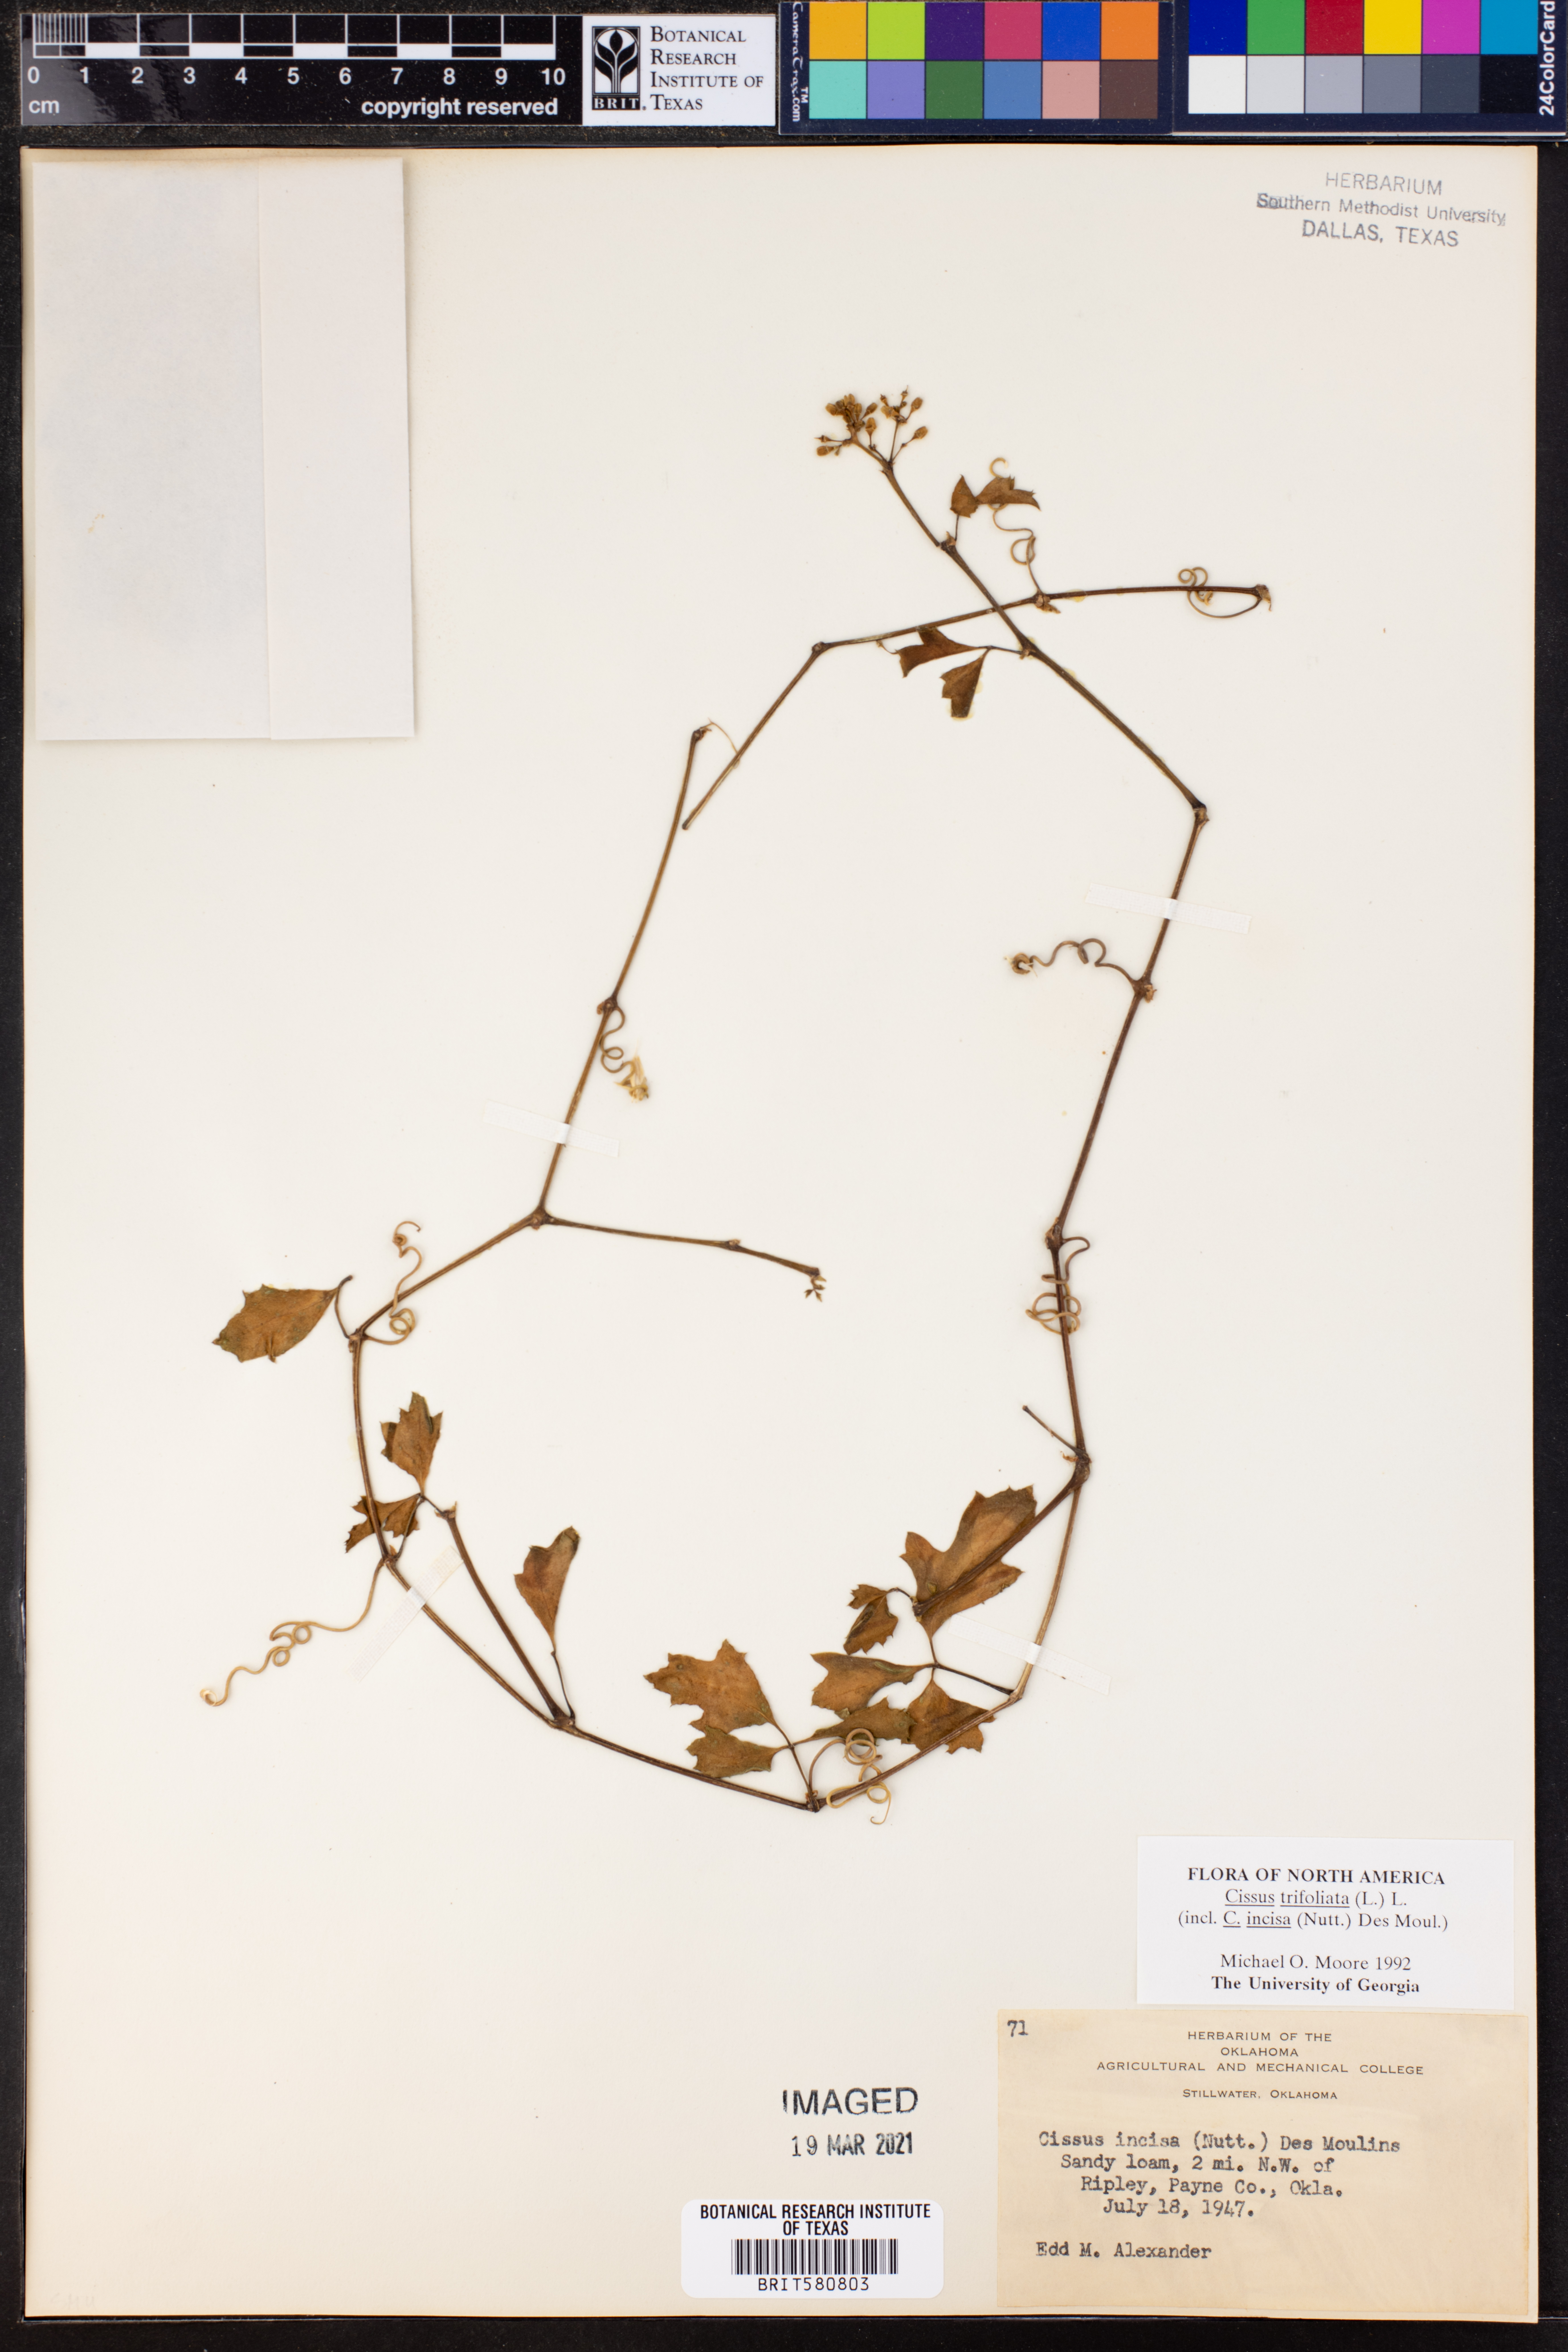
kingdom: Plantae
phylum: Tracheophyta
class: Magnoliopsida
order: Vitales
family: Vitaceae
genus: Cissus
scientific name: Cissus trifoliata
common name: Vine-sorrel
